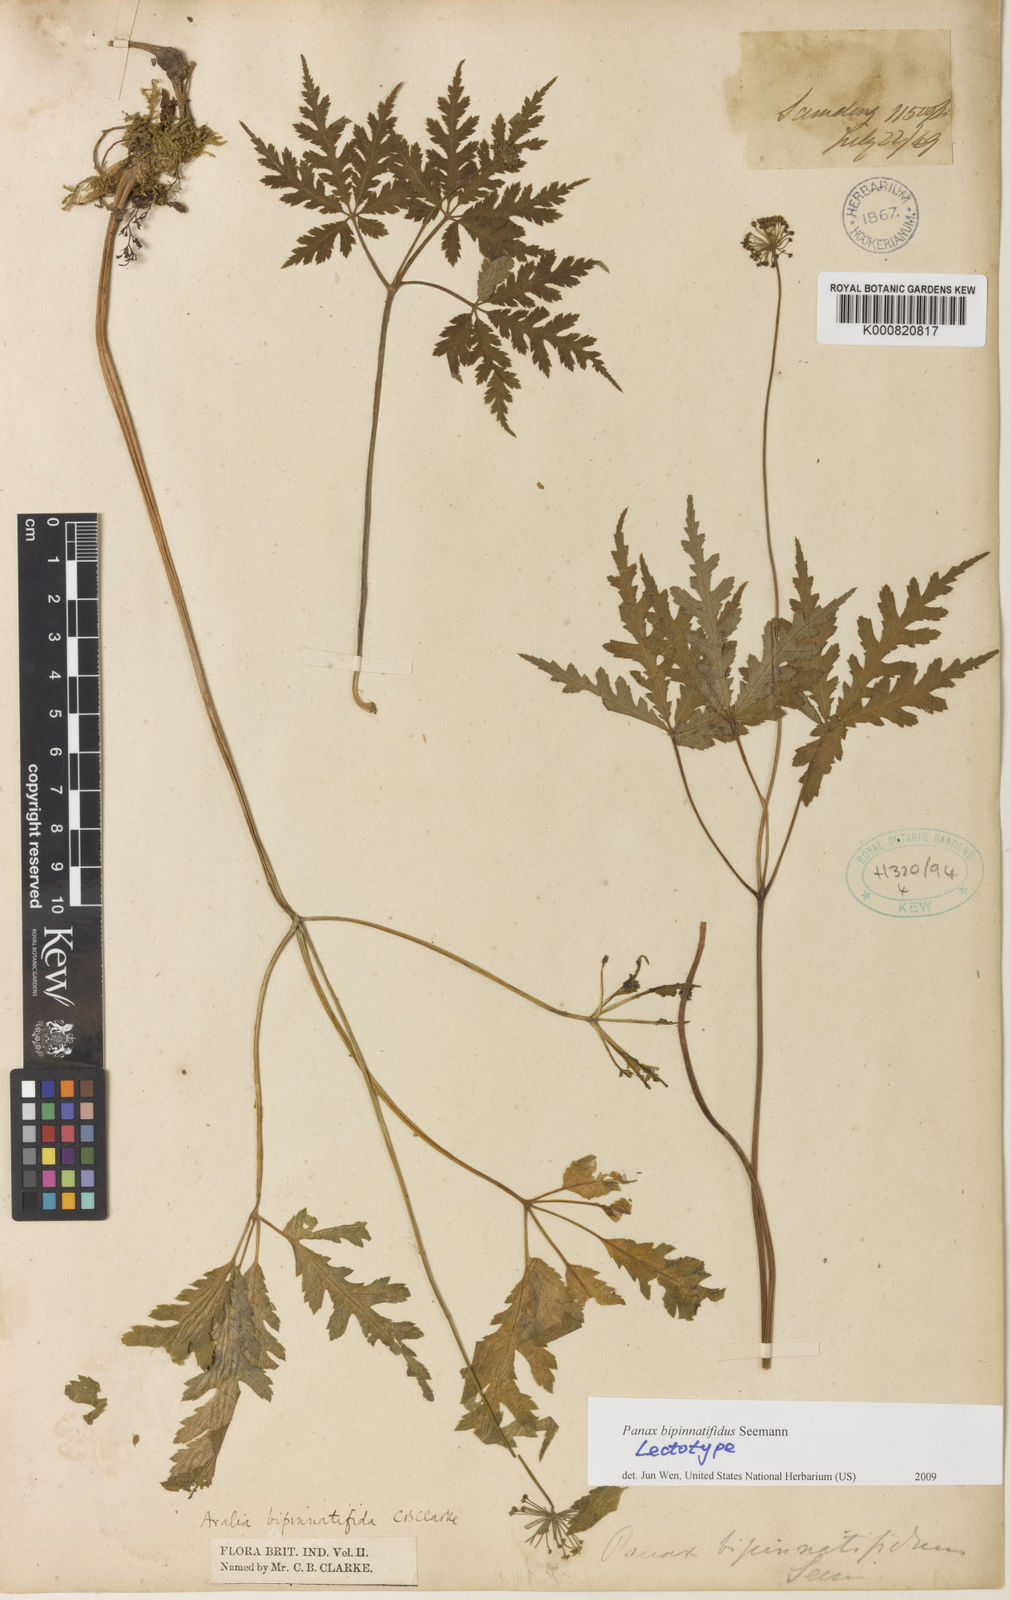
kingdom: Plantae
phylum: Tracheophyta
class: Magnoliopsida
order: Apiales
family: Araliaceae
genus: Panax
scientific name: Panax bipinnatifidus
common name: Feather-leaf bamboo ginseng
